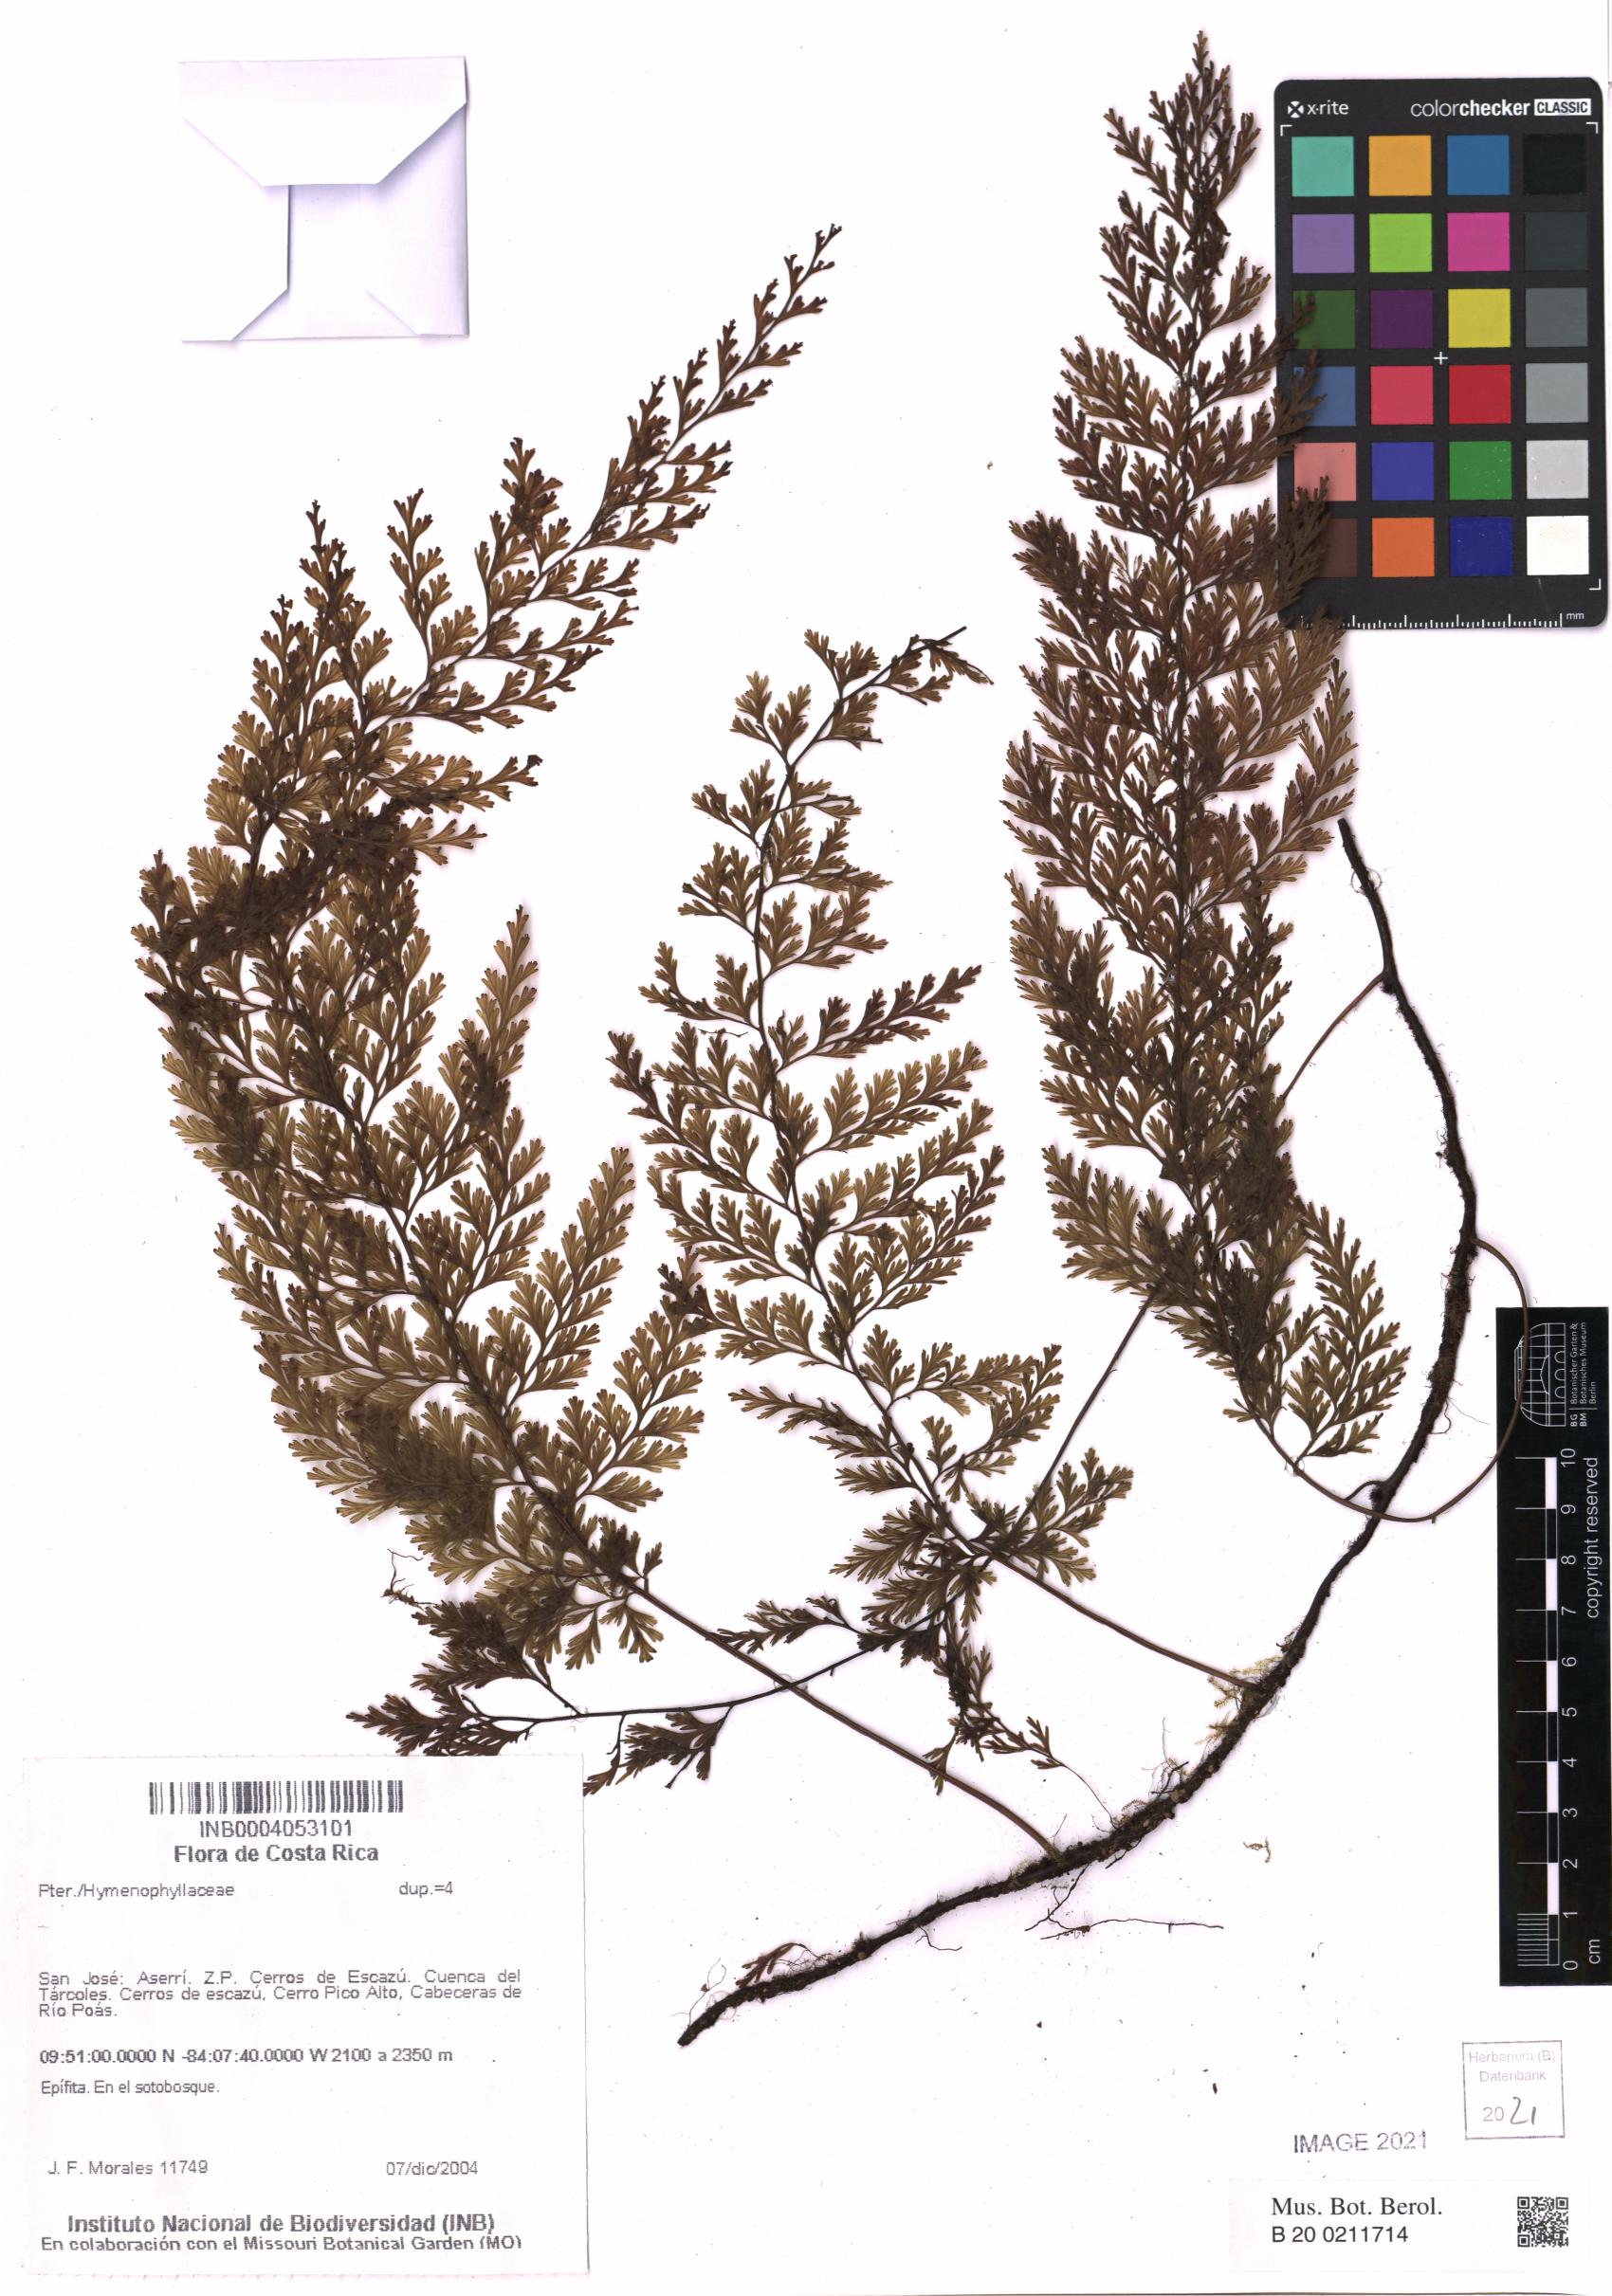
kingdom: Plantae
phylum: Tracheophyta
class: Polypodiopsida
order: Hymenophyllales
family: Hymenophyllaceae
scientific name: Hymenophyllaceae
